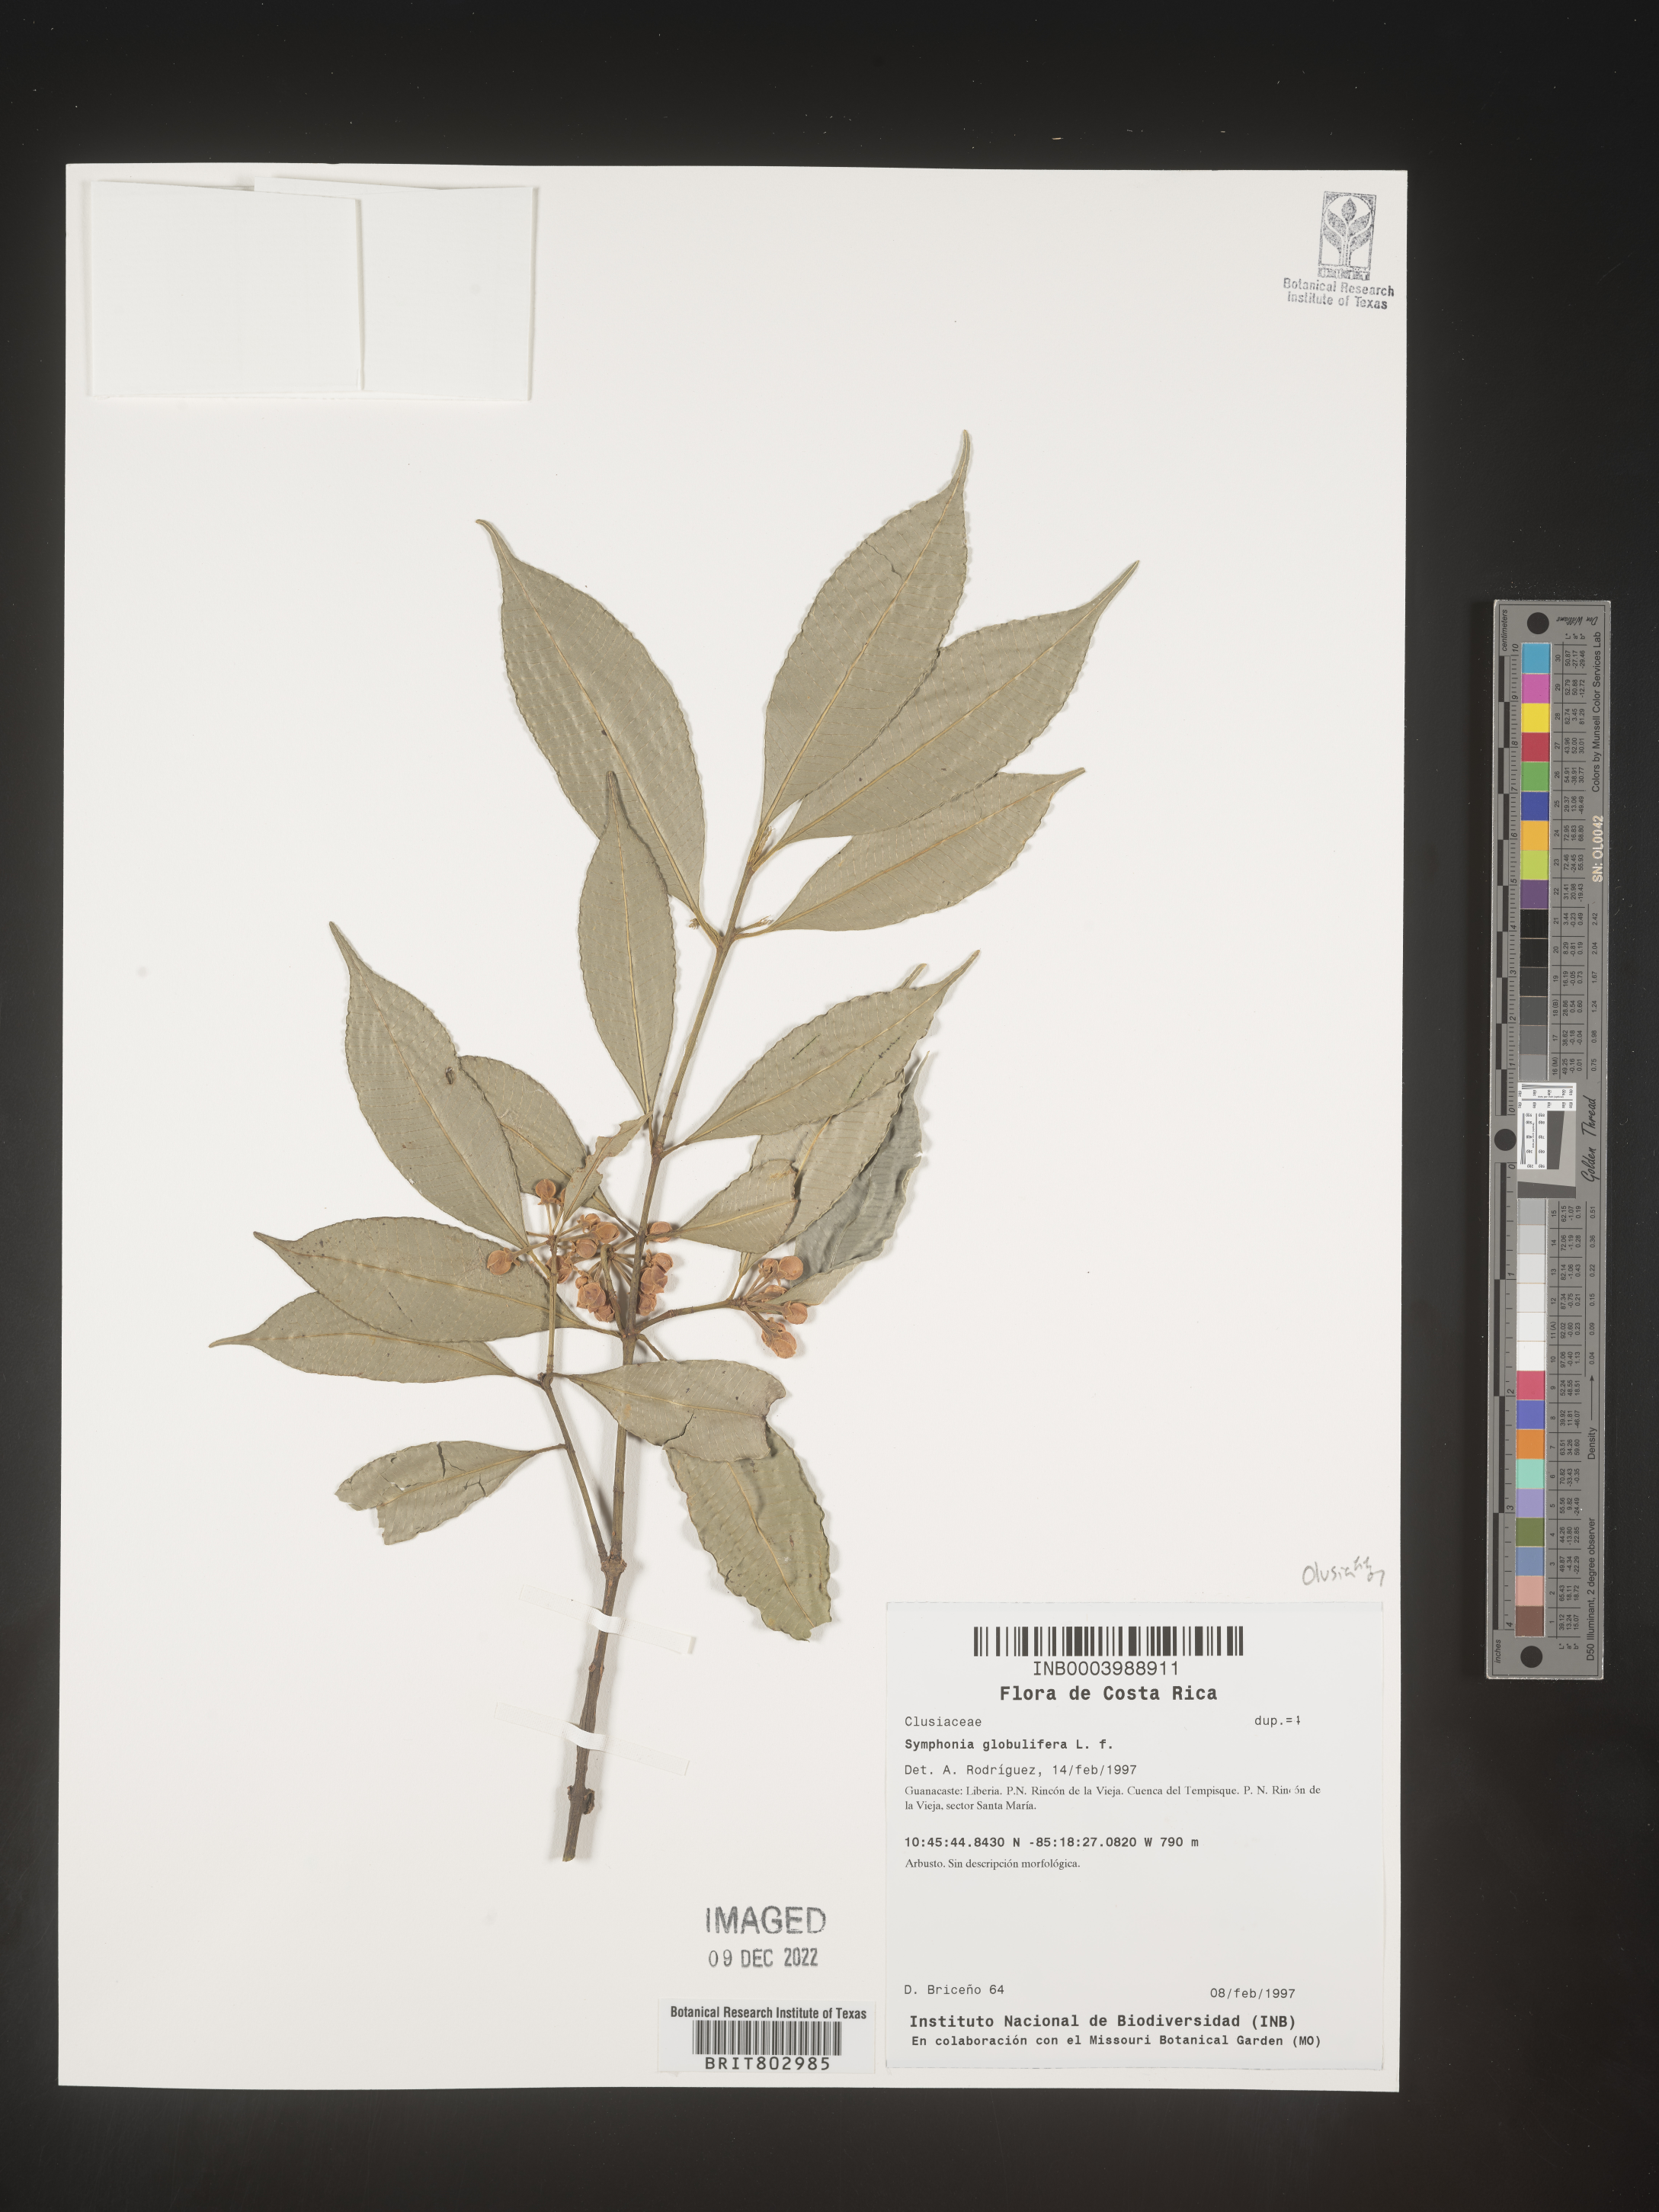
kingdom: Plantae
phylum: Tracheophyta
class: Magnoliopsida
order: Malpighiales
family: Clusiaceae
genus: Symphonia
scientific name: Symphonia
